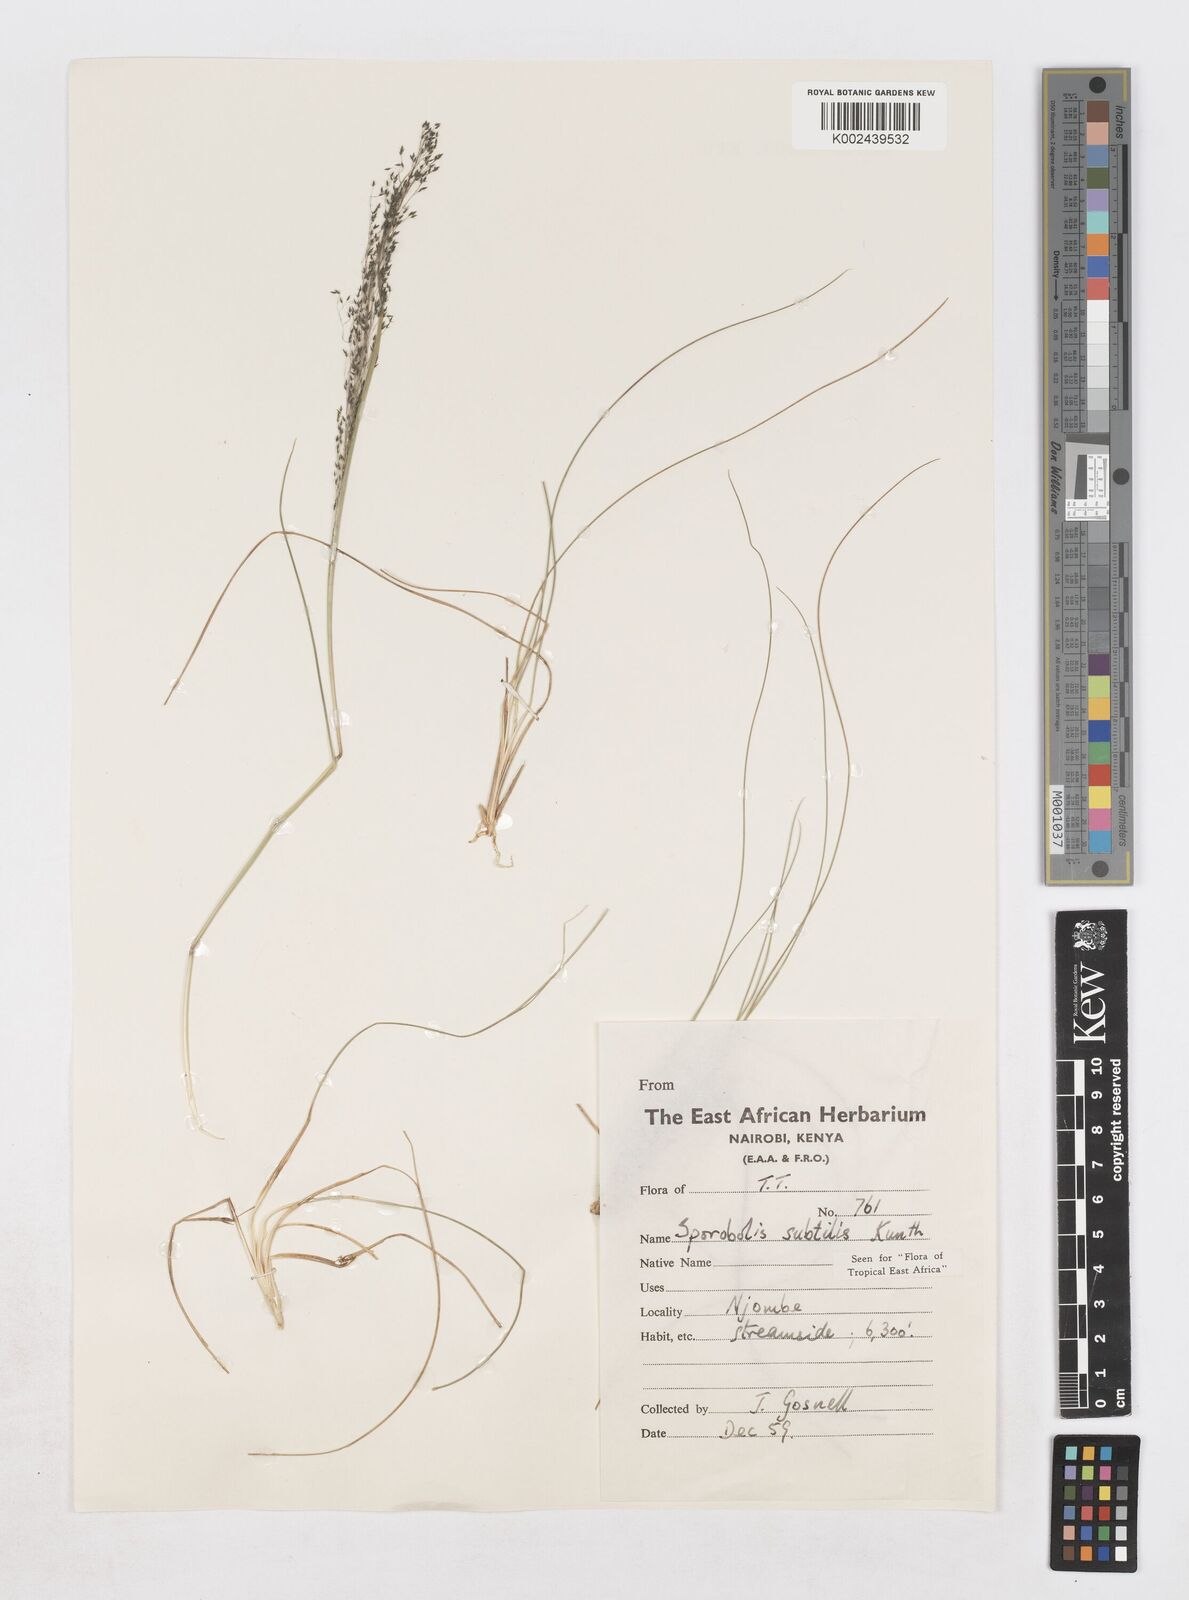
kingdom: Plantae
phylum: Tracheophyta
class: Liliopsida
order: Poales
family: Poaceae
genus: Sporobolus
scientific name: Sporobolus
